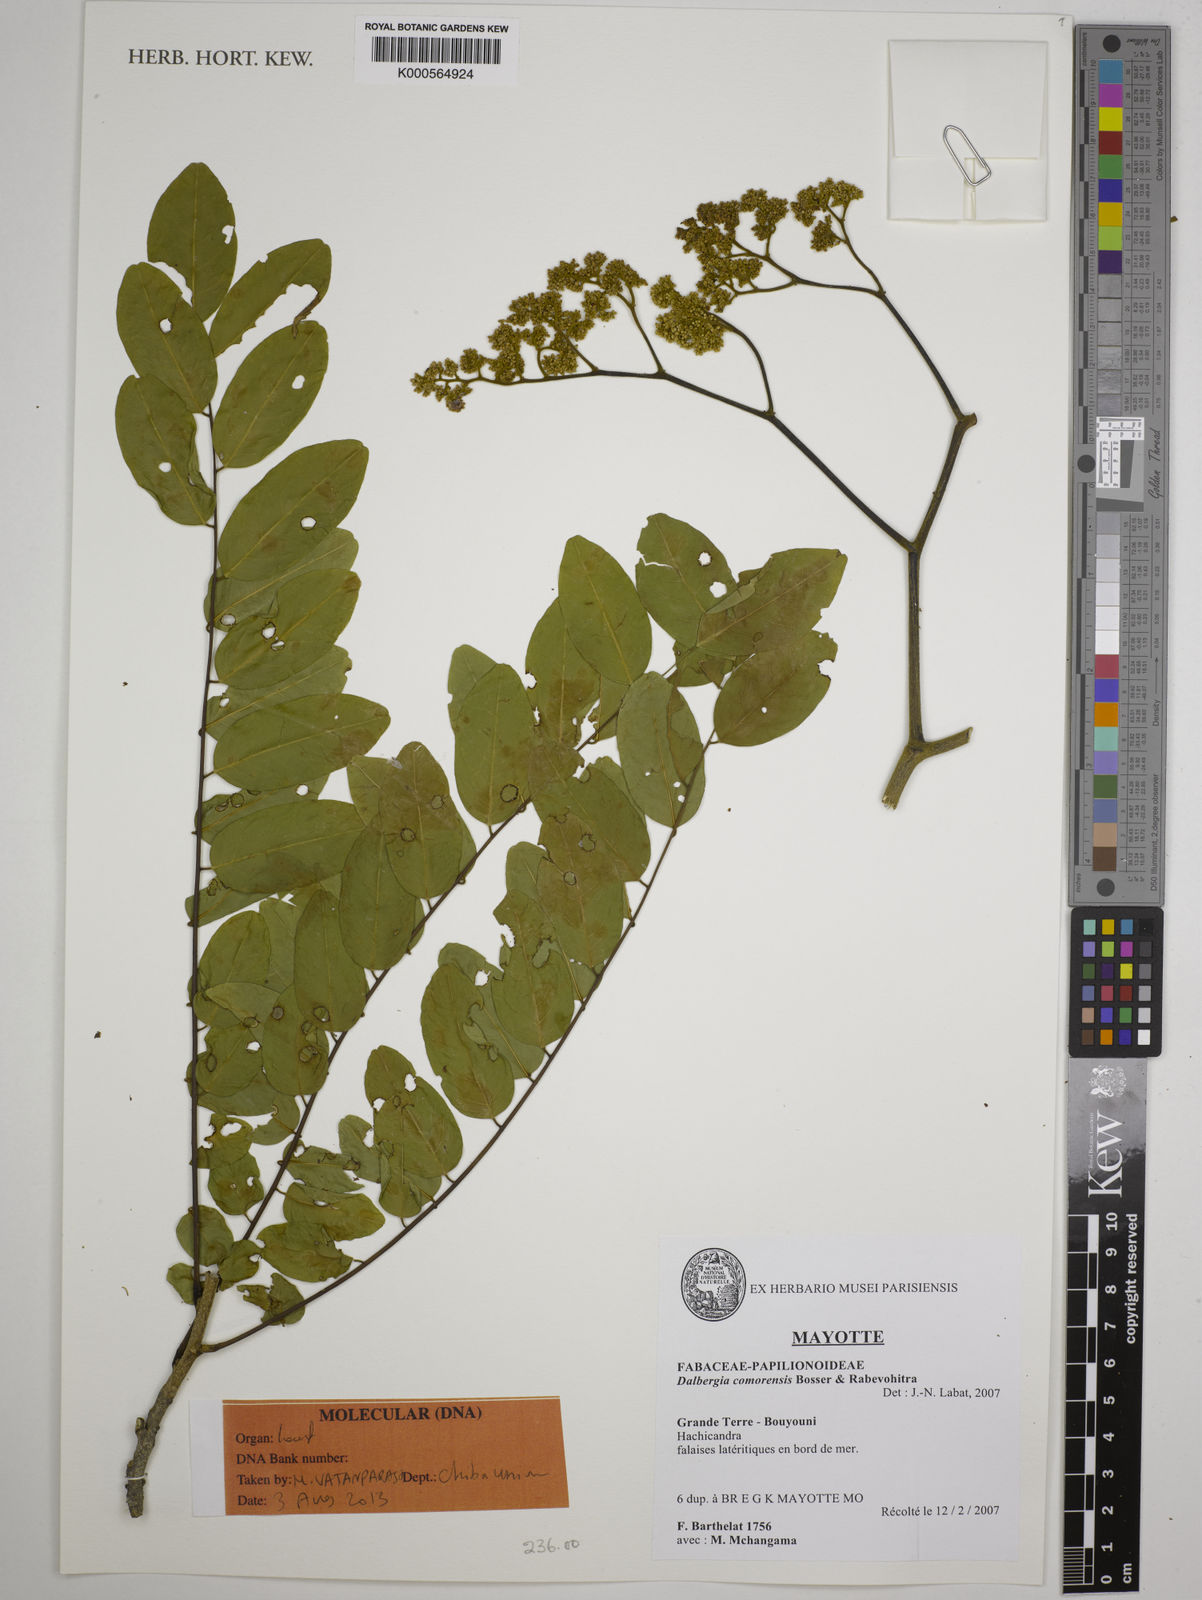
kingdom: Plantae
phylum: Tracheophyta
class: Magnoliopsida
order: Fabales
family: Fabaceae
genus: Dalbergia
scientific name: Dalbergia comorensis
